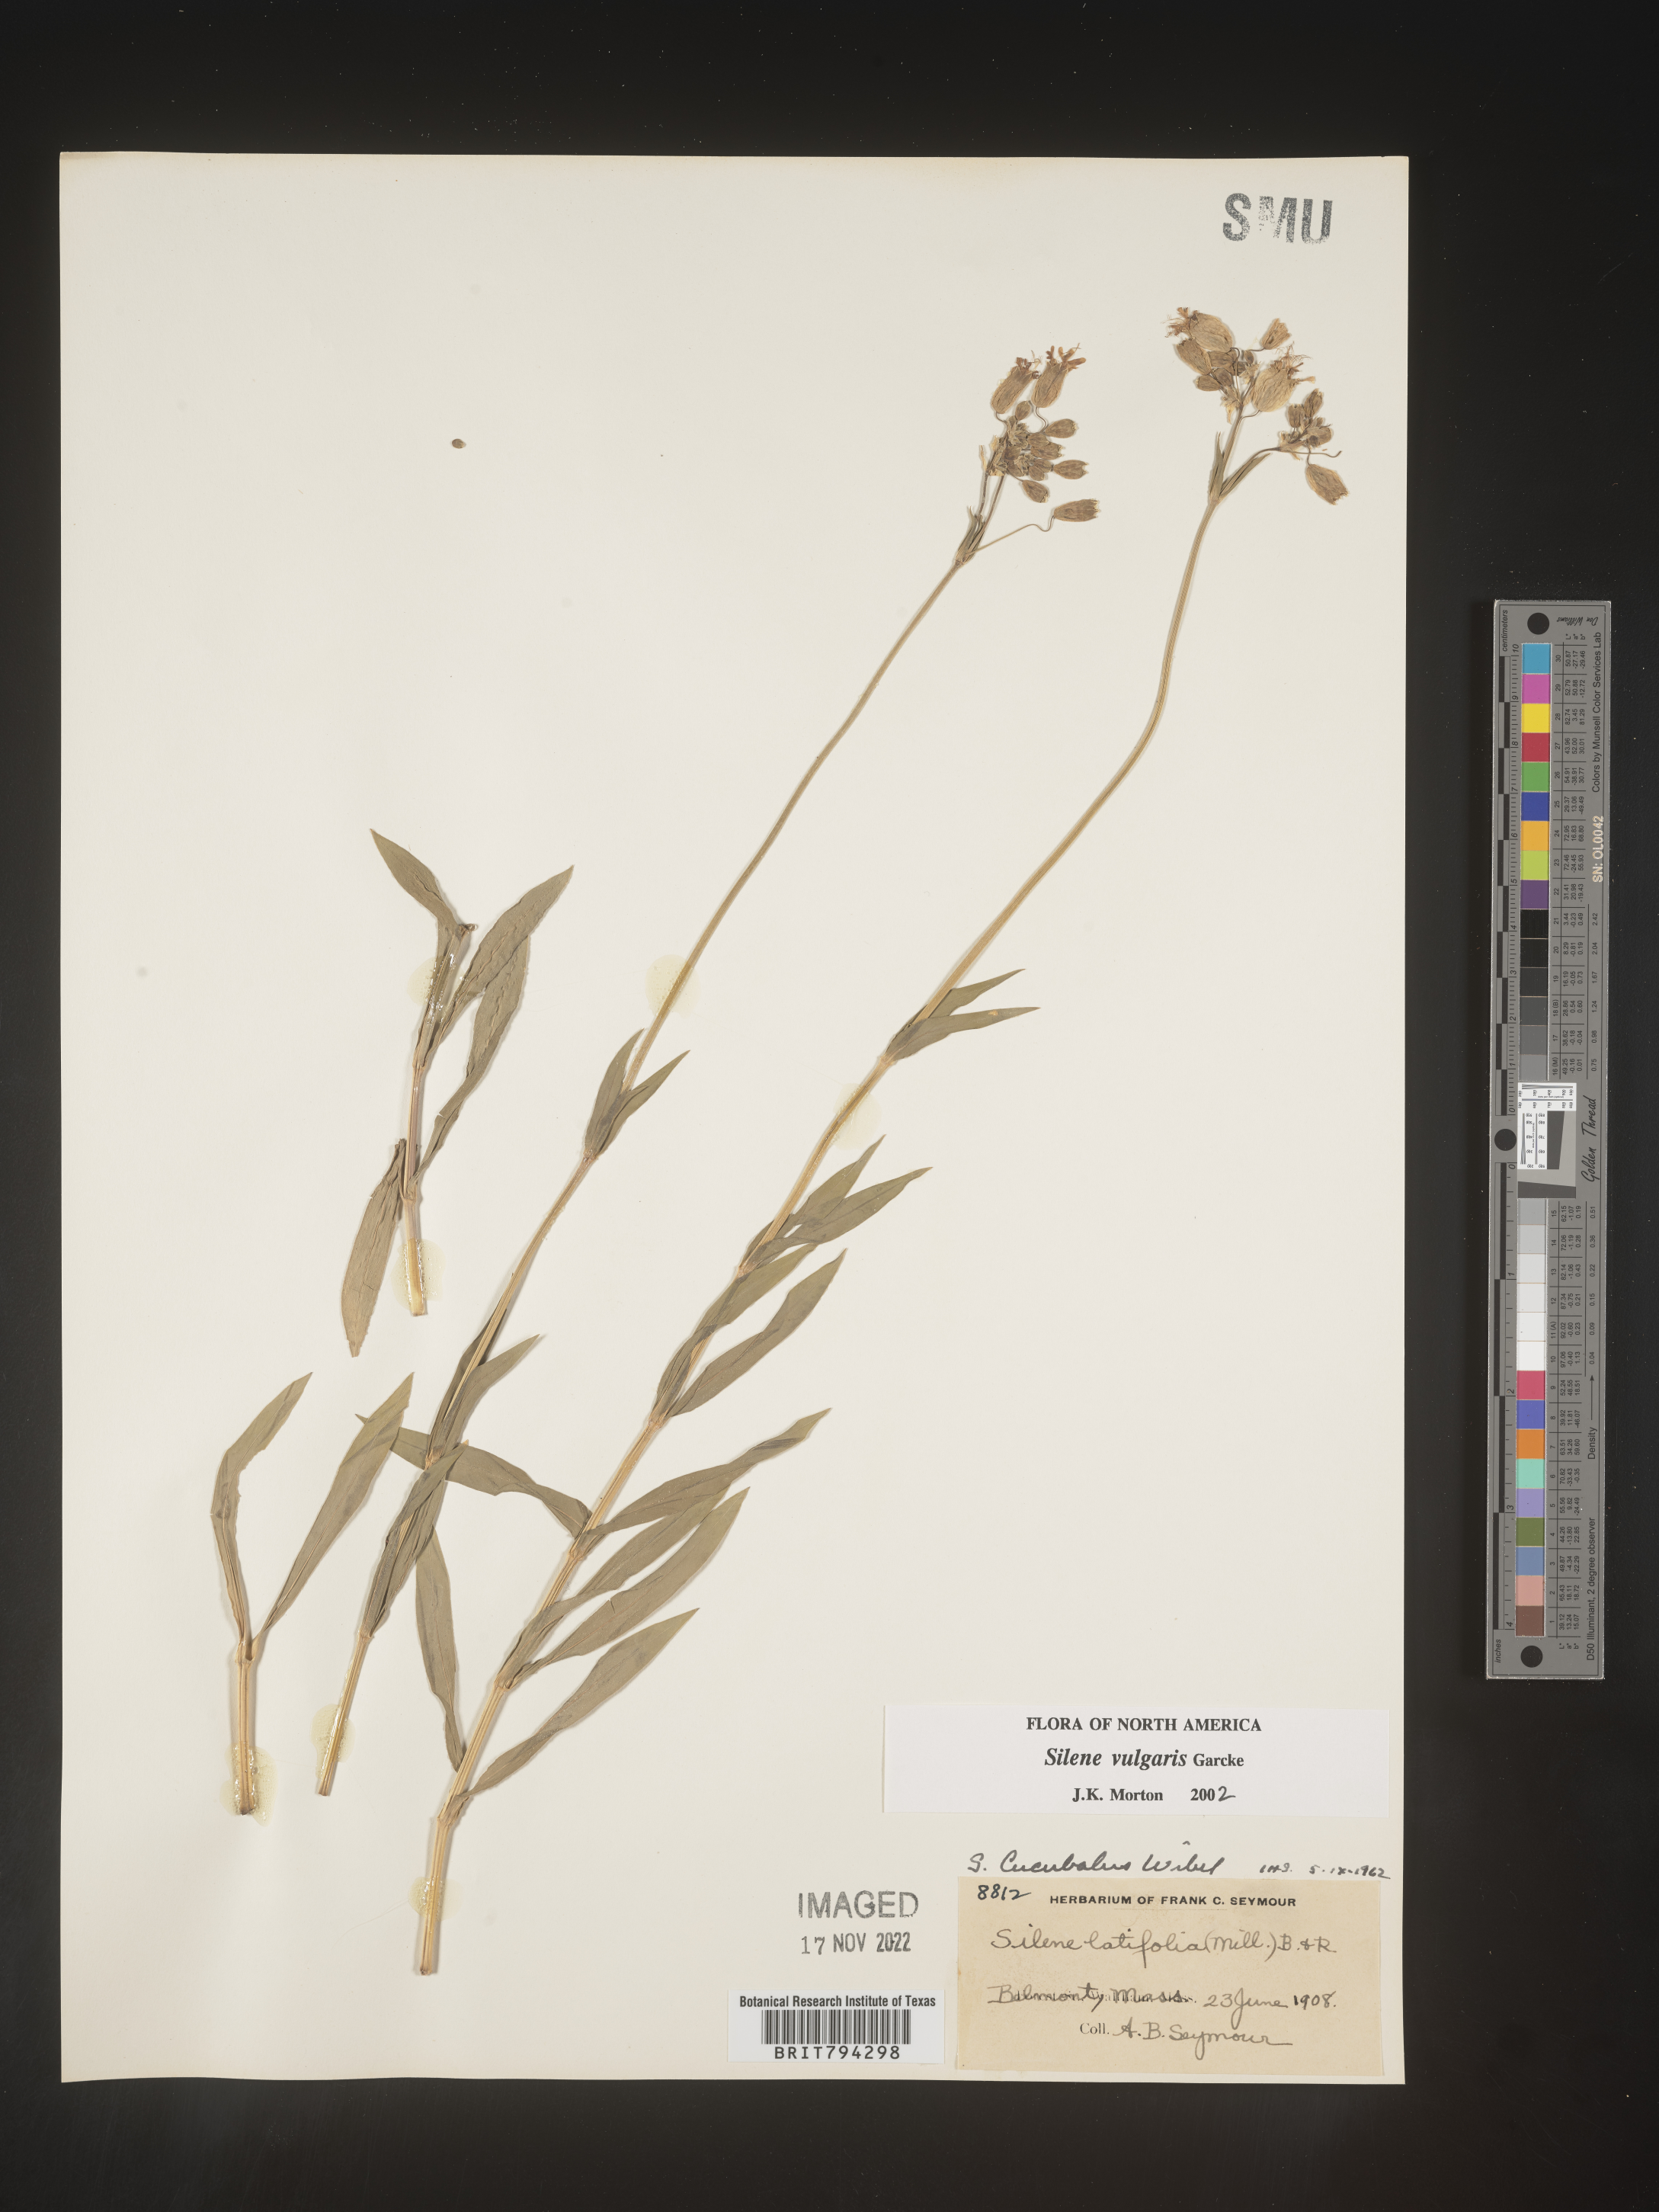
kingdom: Plantae
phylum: Tracheophyta
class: Magnoliopsida
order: Caryophyllales
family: Caryophyllaceae
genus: Silene
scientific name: Silene vulgaris
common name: Bladder campion
